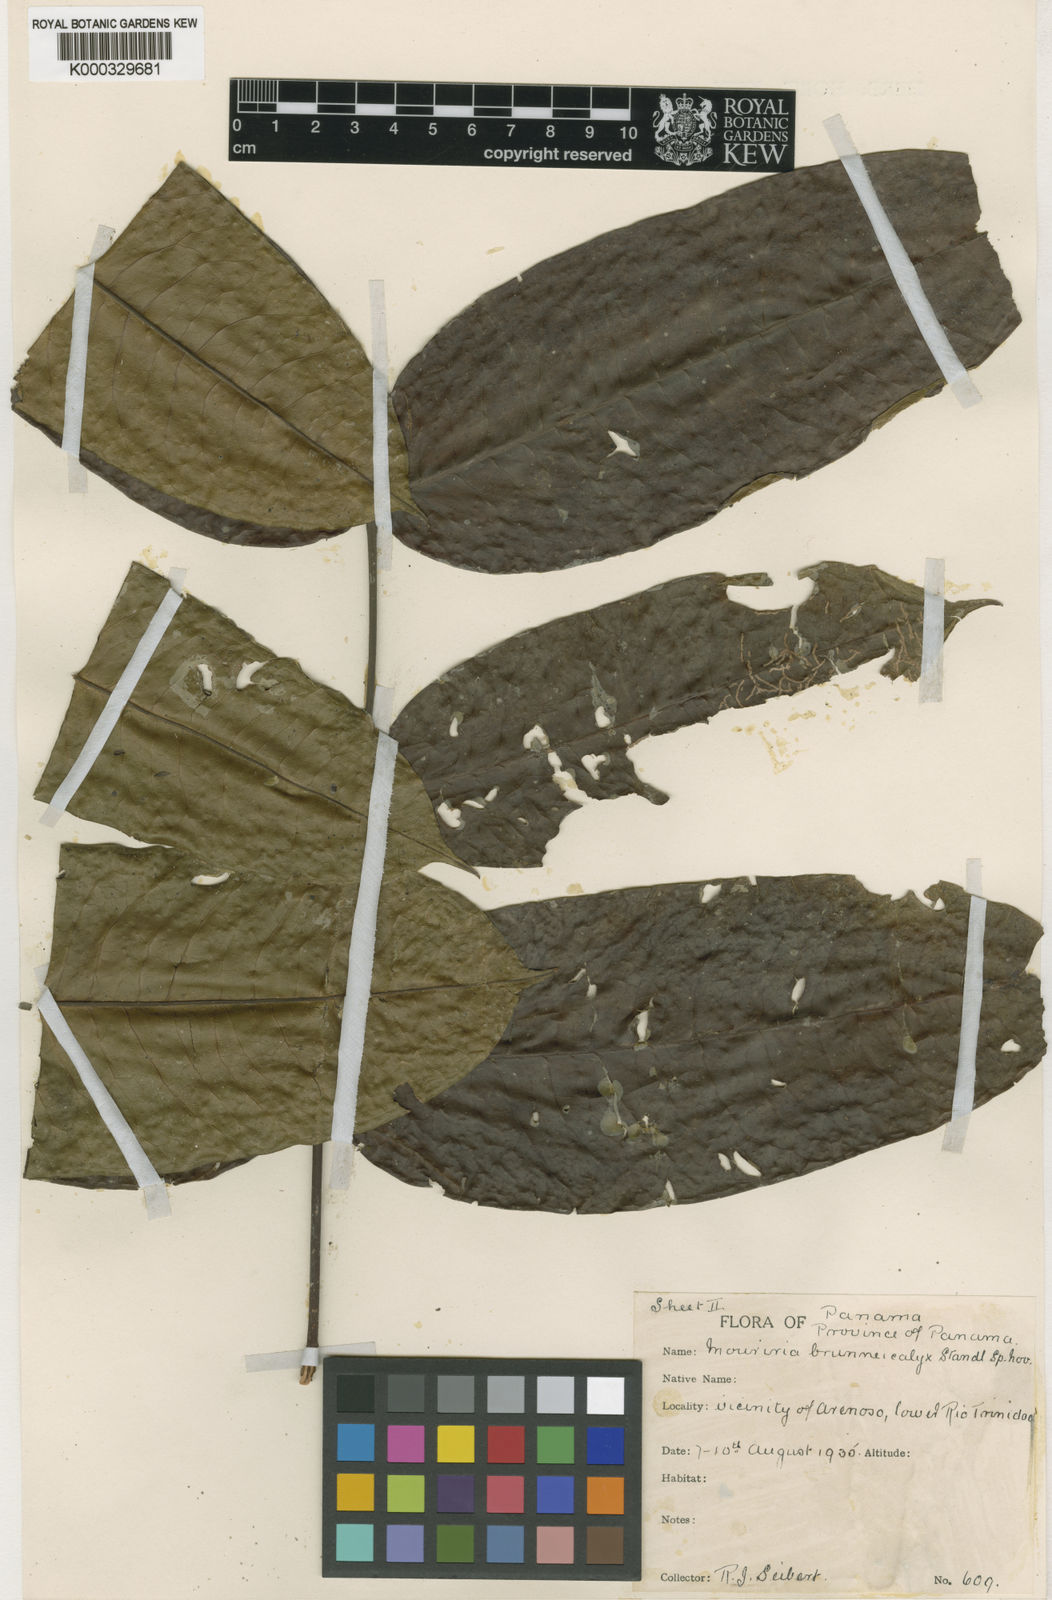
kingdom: Plantae
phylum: Tracheophyta
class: Magnoliopsida
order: Myrtales
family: Melastomataceae
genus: Mouriri
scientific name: Mouriri cyphocarpa
